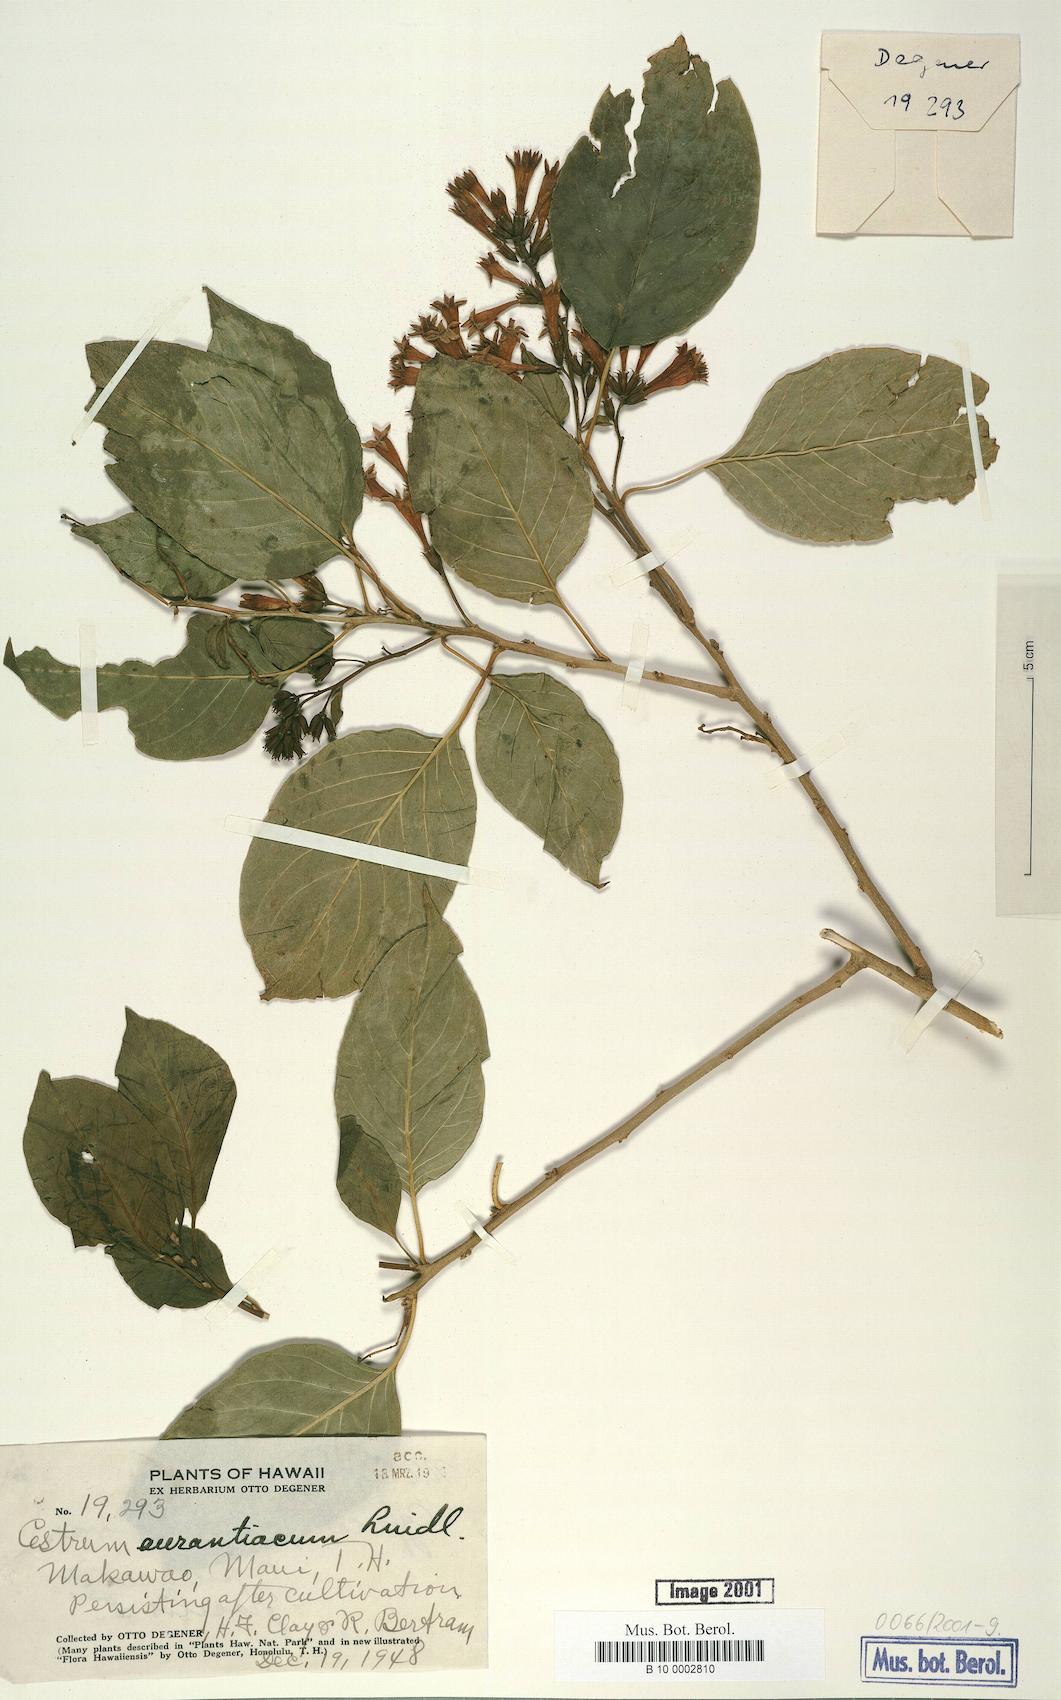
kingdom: Plantae
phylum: Tracheophyta
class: Magnoliopsida
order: Solanales
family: Solanaceae
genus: Cestrum
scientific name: Cestrum aurantiacum
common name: Orange cestrum
